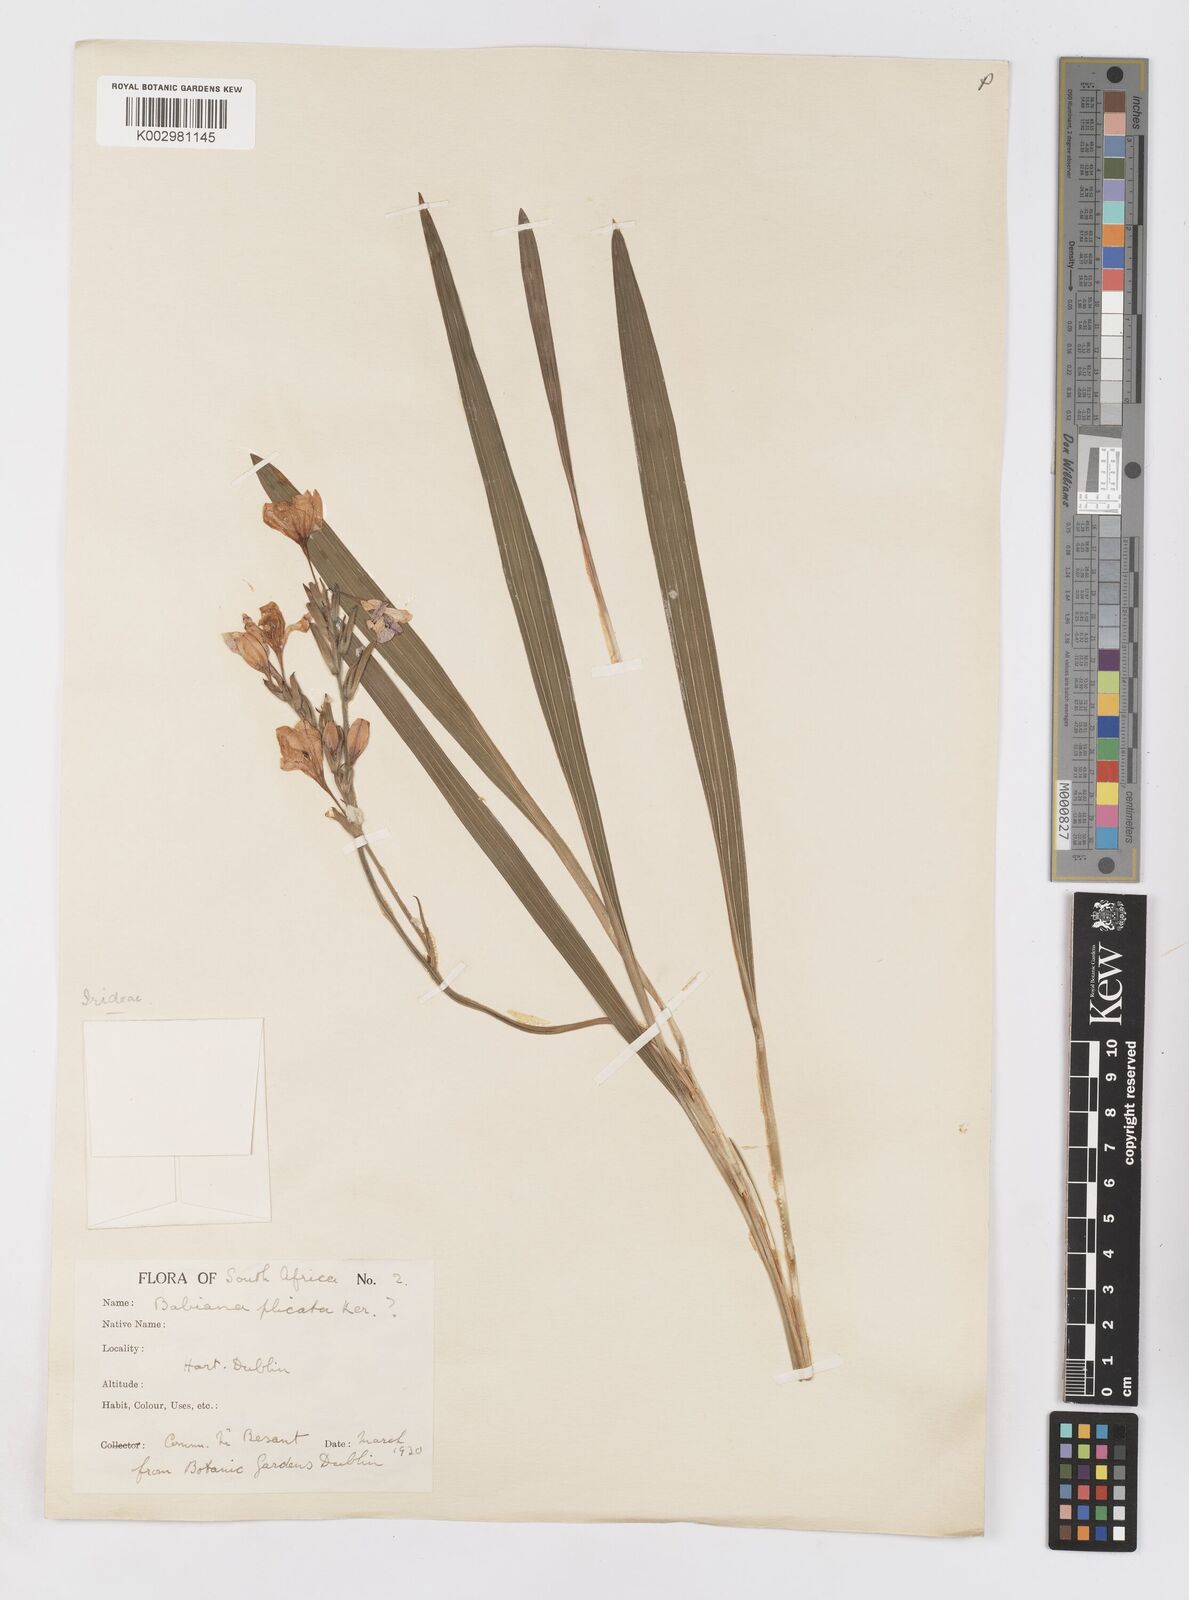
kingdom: Plantae
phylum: Tracheophyta
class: Liliopsida
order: Asparagales
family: Iridaceae
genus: Babiana
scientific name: Babiana
